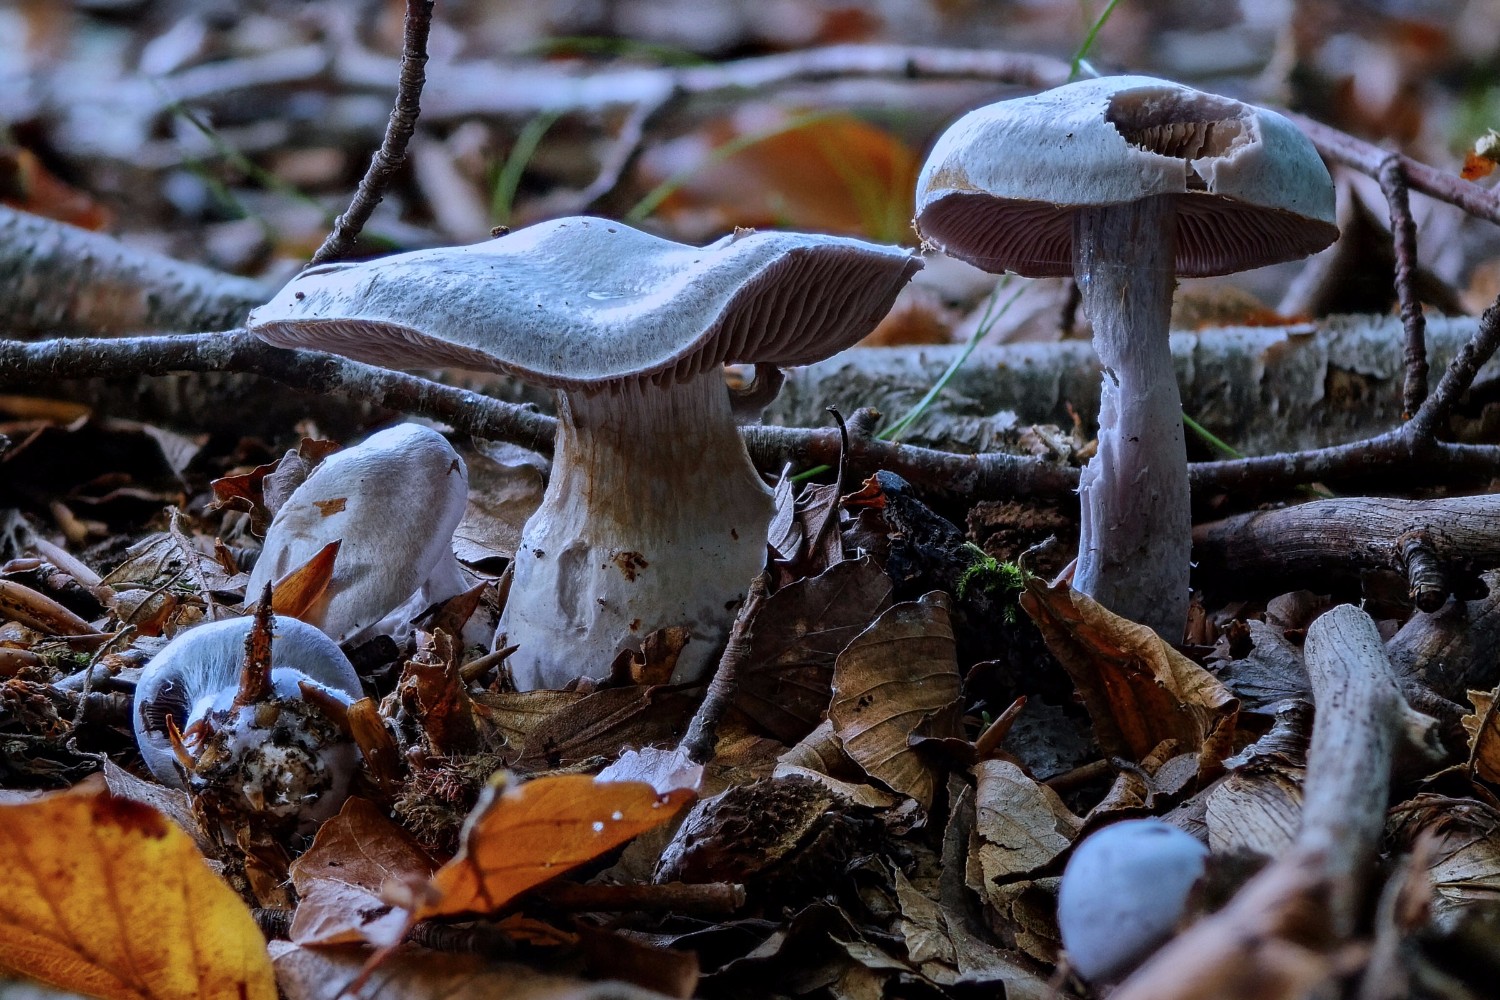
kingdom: Fungi
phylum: Basidiomycota
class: Agaricomycetes
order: Agaricales
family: Cortinariaceae
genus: Cortinarius
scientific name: Cortinarius alboviolaceus
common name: lysviolet slørhat
